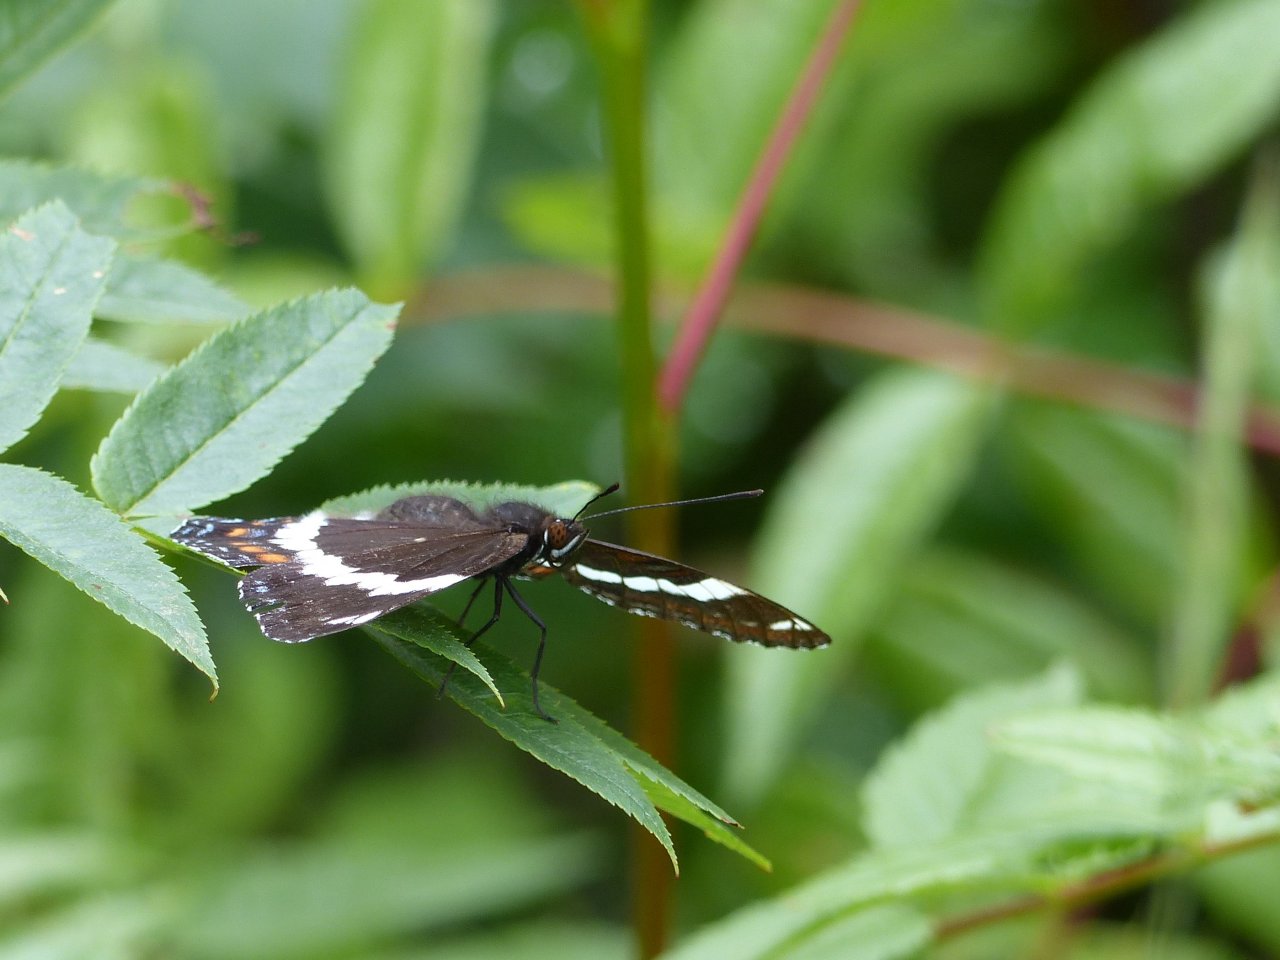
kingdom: Animalia
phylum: Arthropoda
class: Insecta
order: Lepidoptera
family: Nymphalidae
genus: Limenitis
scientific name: Limenitis arthemis
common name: Red-spotted Admiral
